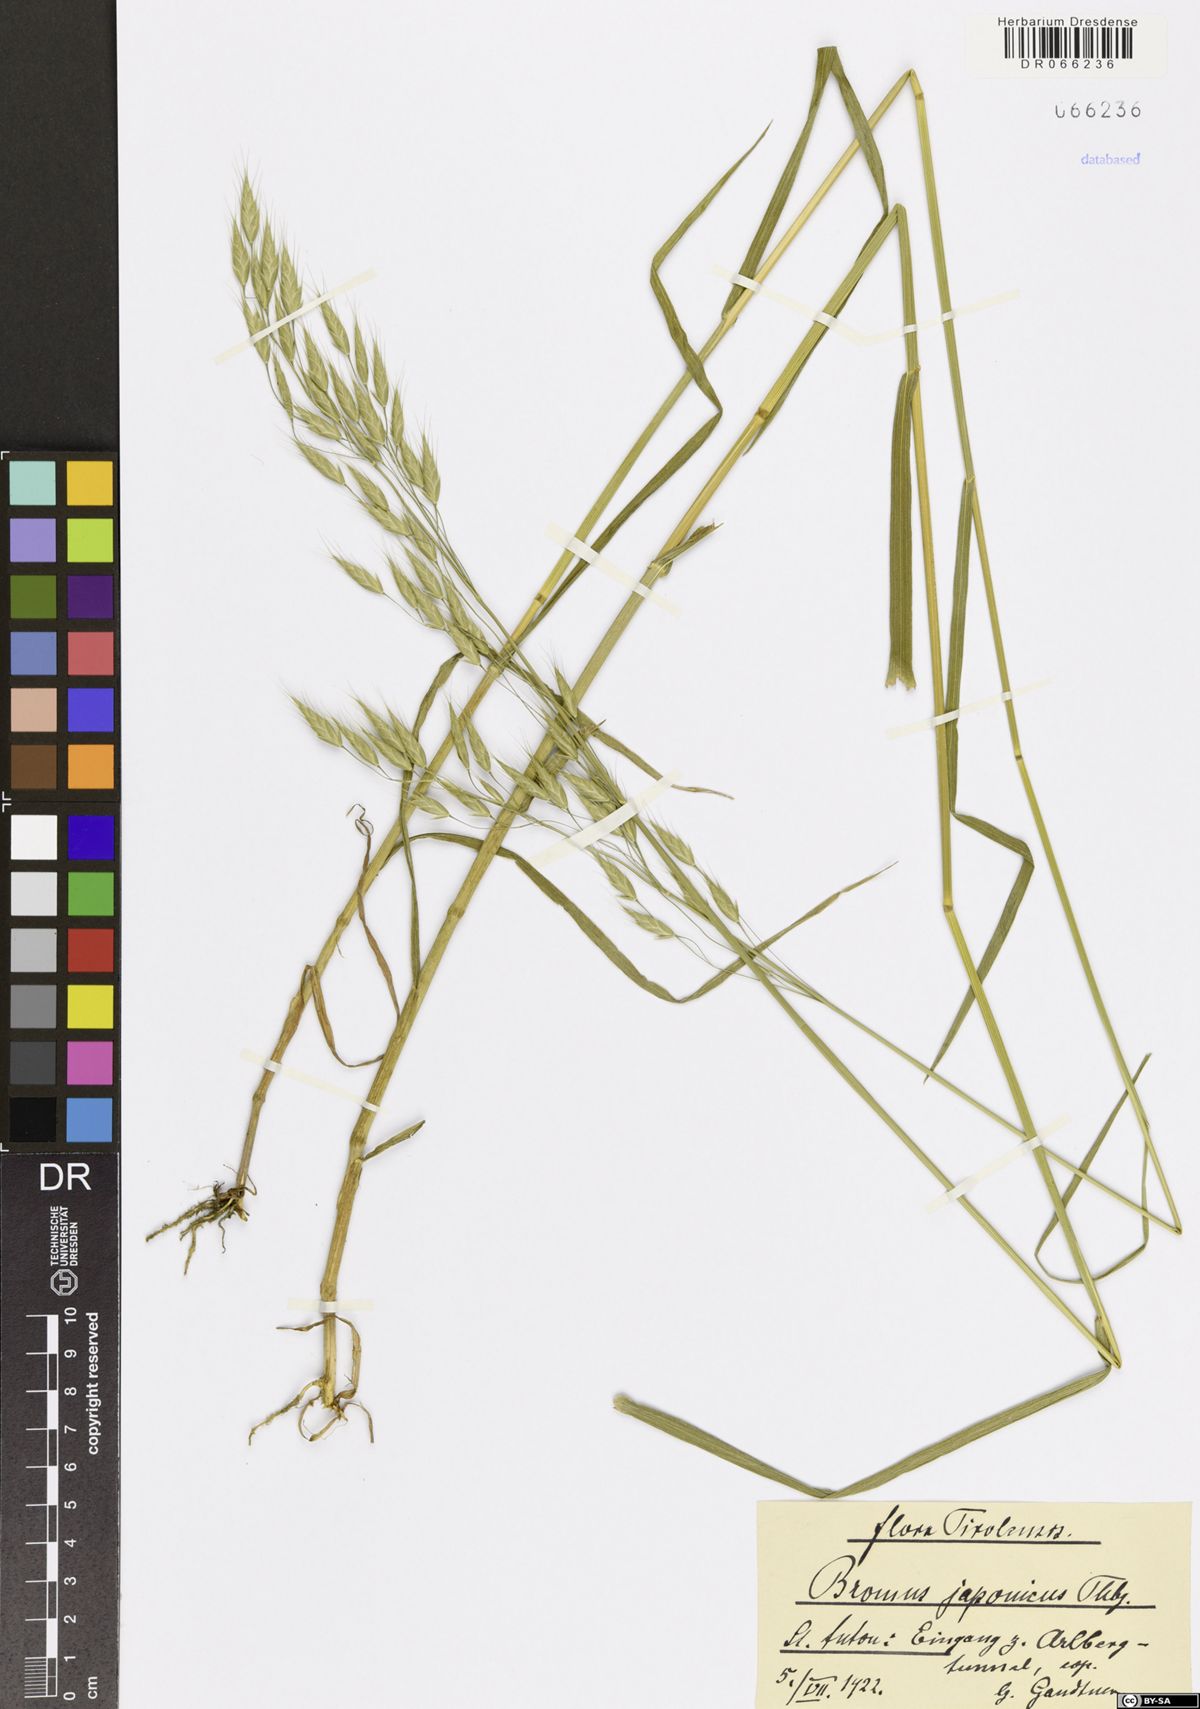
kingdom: Plantae
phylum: Tracheophyta
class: Liliopsida
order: Poales
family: Poaceae
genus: Bromus
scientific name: Bromus japonicus
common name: Japanese brome
